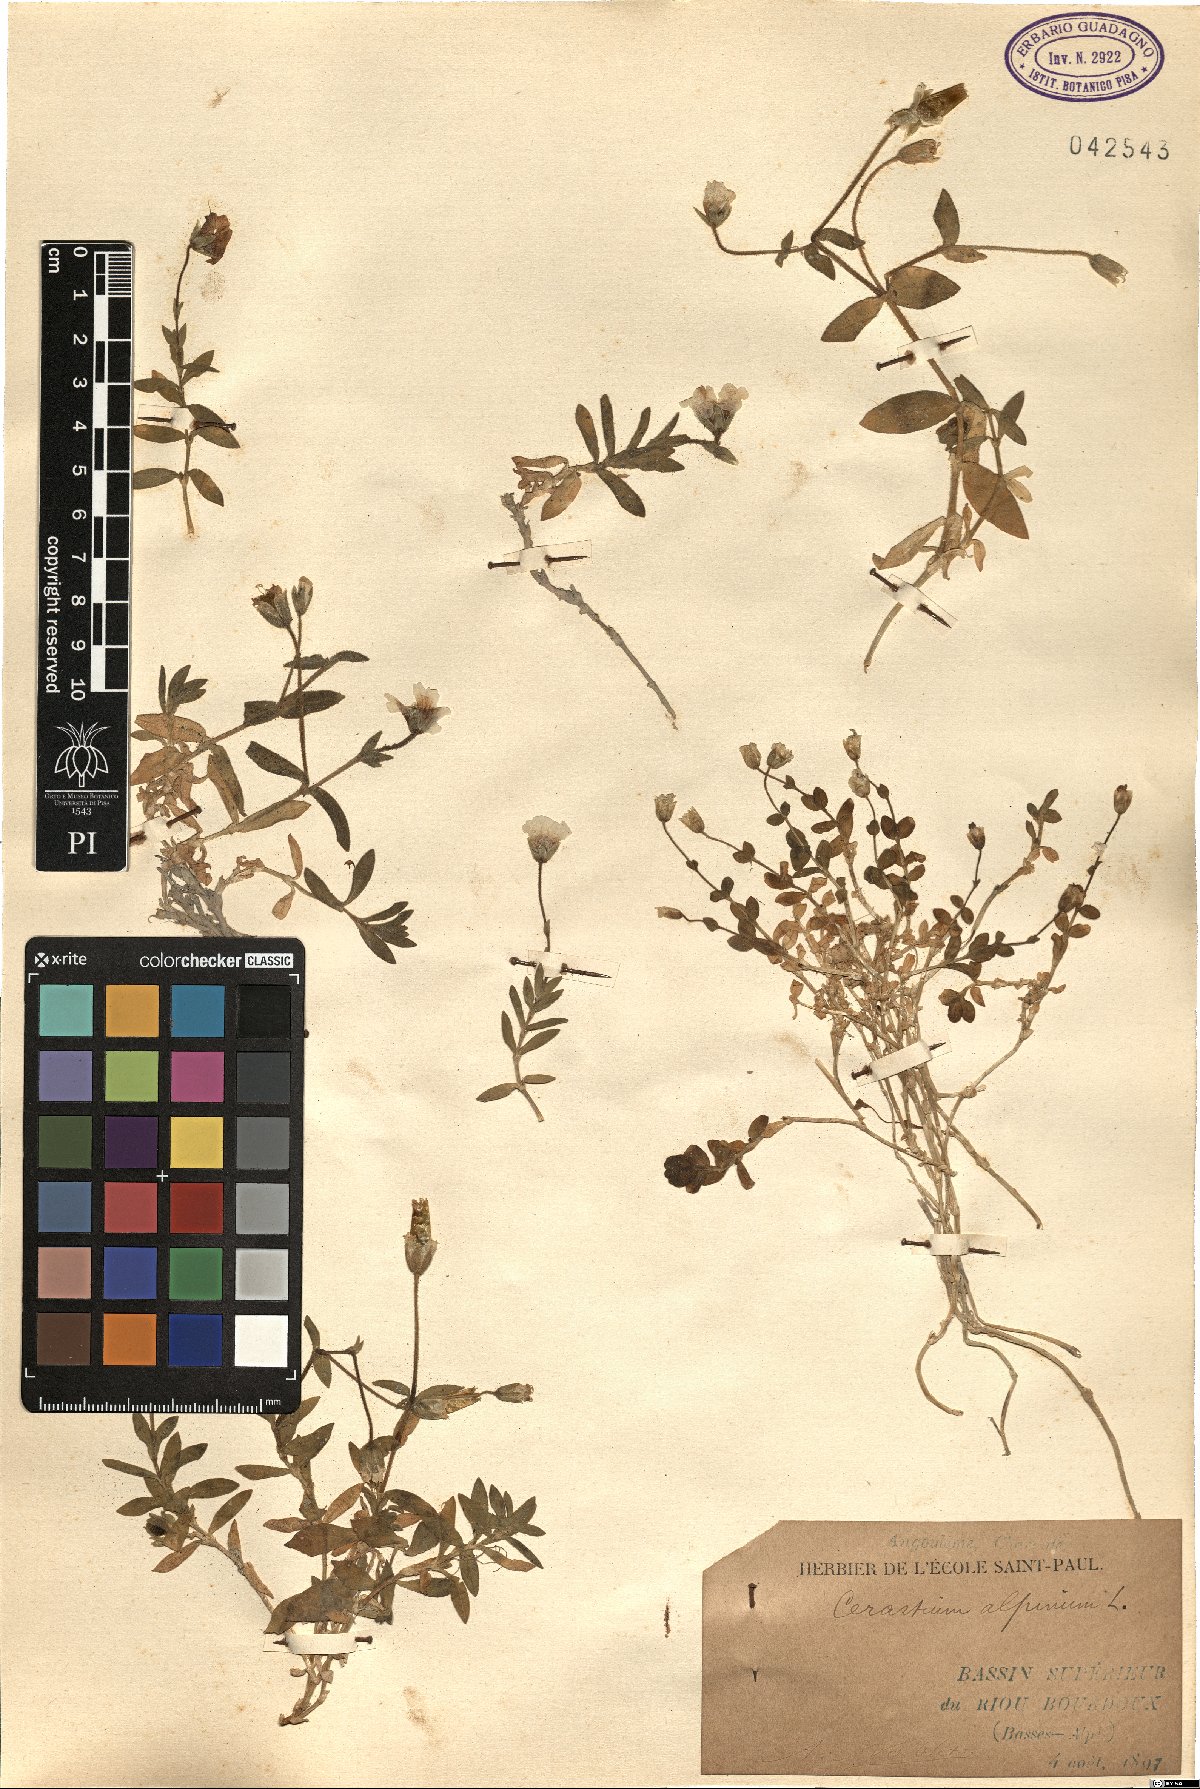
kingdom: Plantae
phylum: Tracheophyta
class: Magnoliopsida
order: Caryophyllales
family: Caryophyllaceae
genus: Cerastium
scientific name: Cerastium alpinum
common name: Alpine mouse-ear
